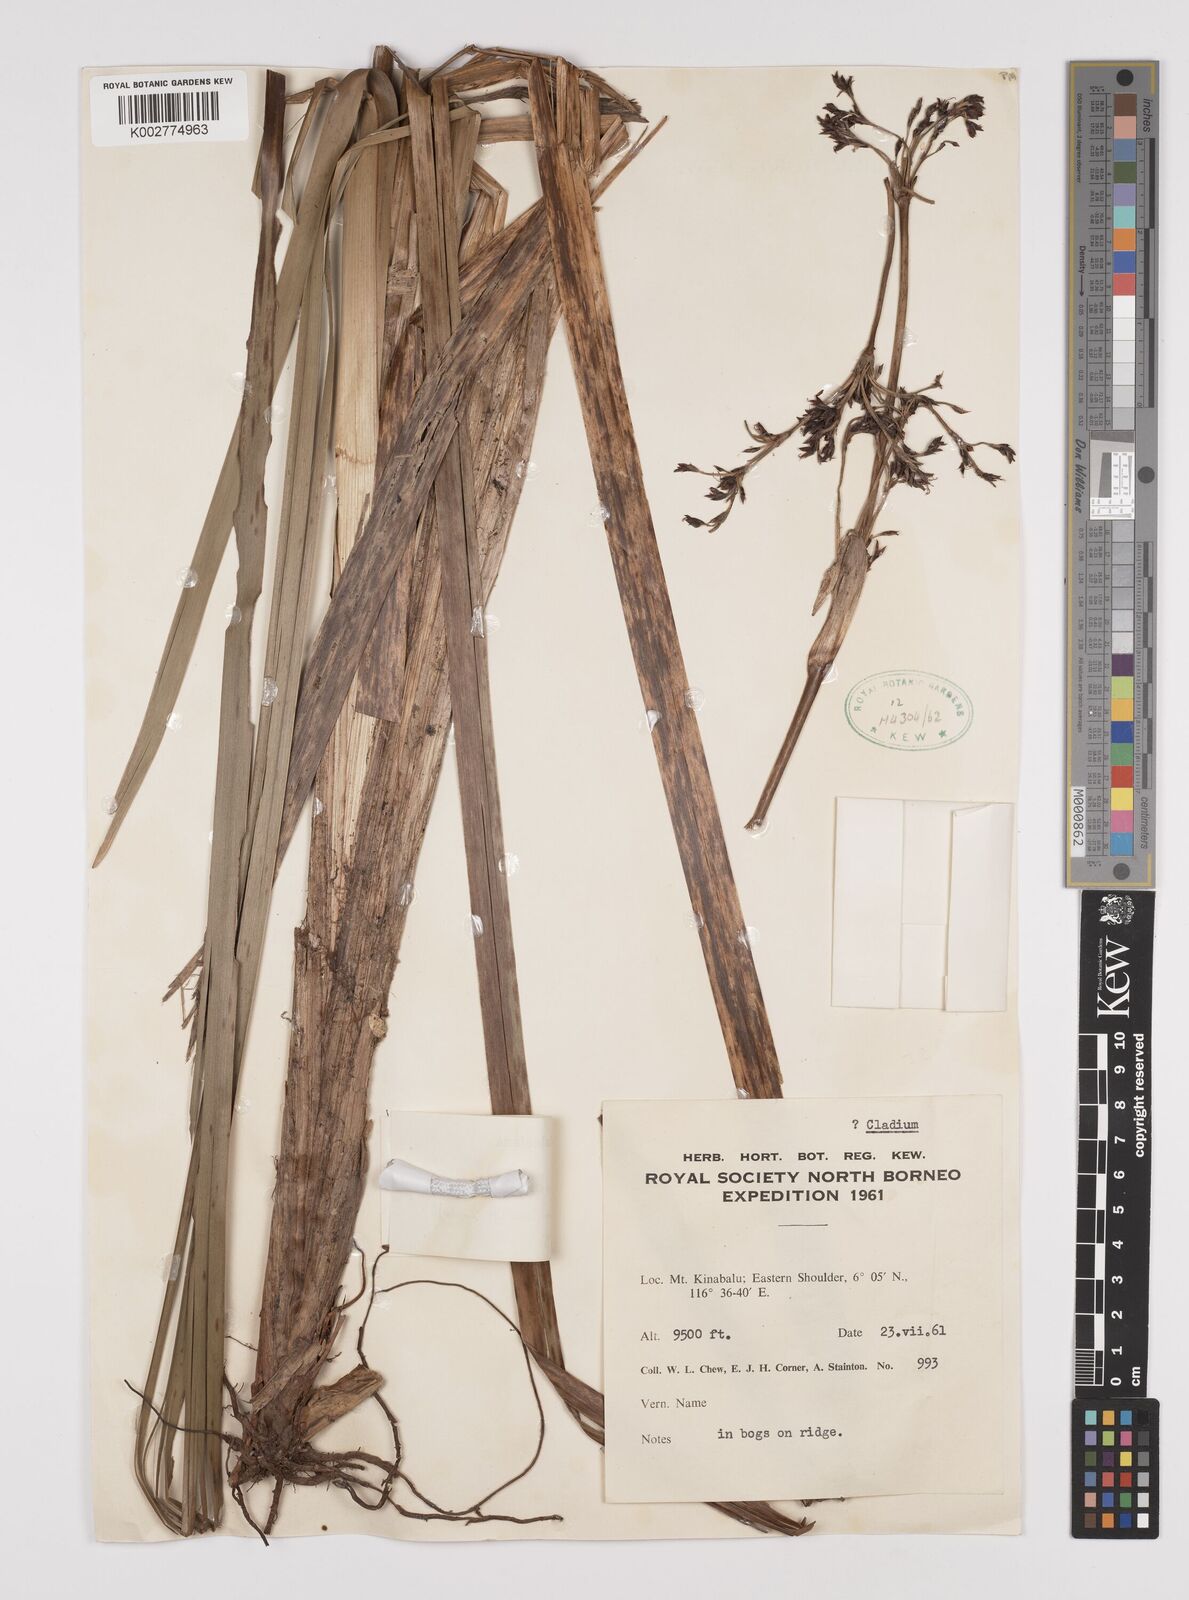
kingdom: Plantae
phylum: Tracheophyta
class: Liliopsida
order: Poales
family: Cyperaceae
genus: Machaerina
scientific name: Machaerina falcata
